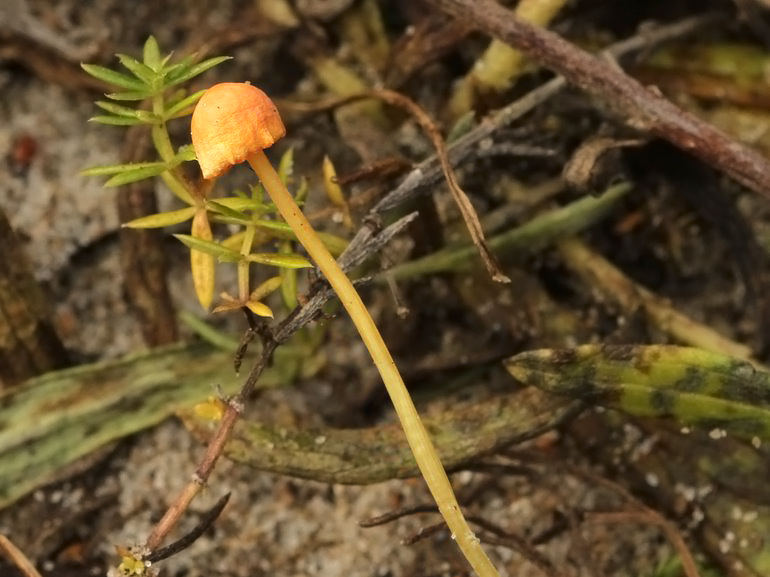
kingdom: Fungi
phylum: Basidiomycota
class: Agaricomycetes
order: Agaricales
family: Mycenaceae
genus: Mycena
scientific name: Mycena acicula
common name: orange huesvamp
